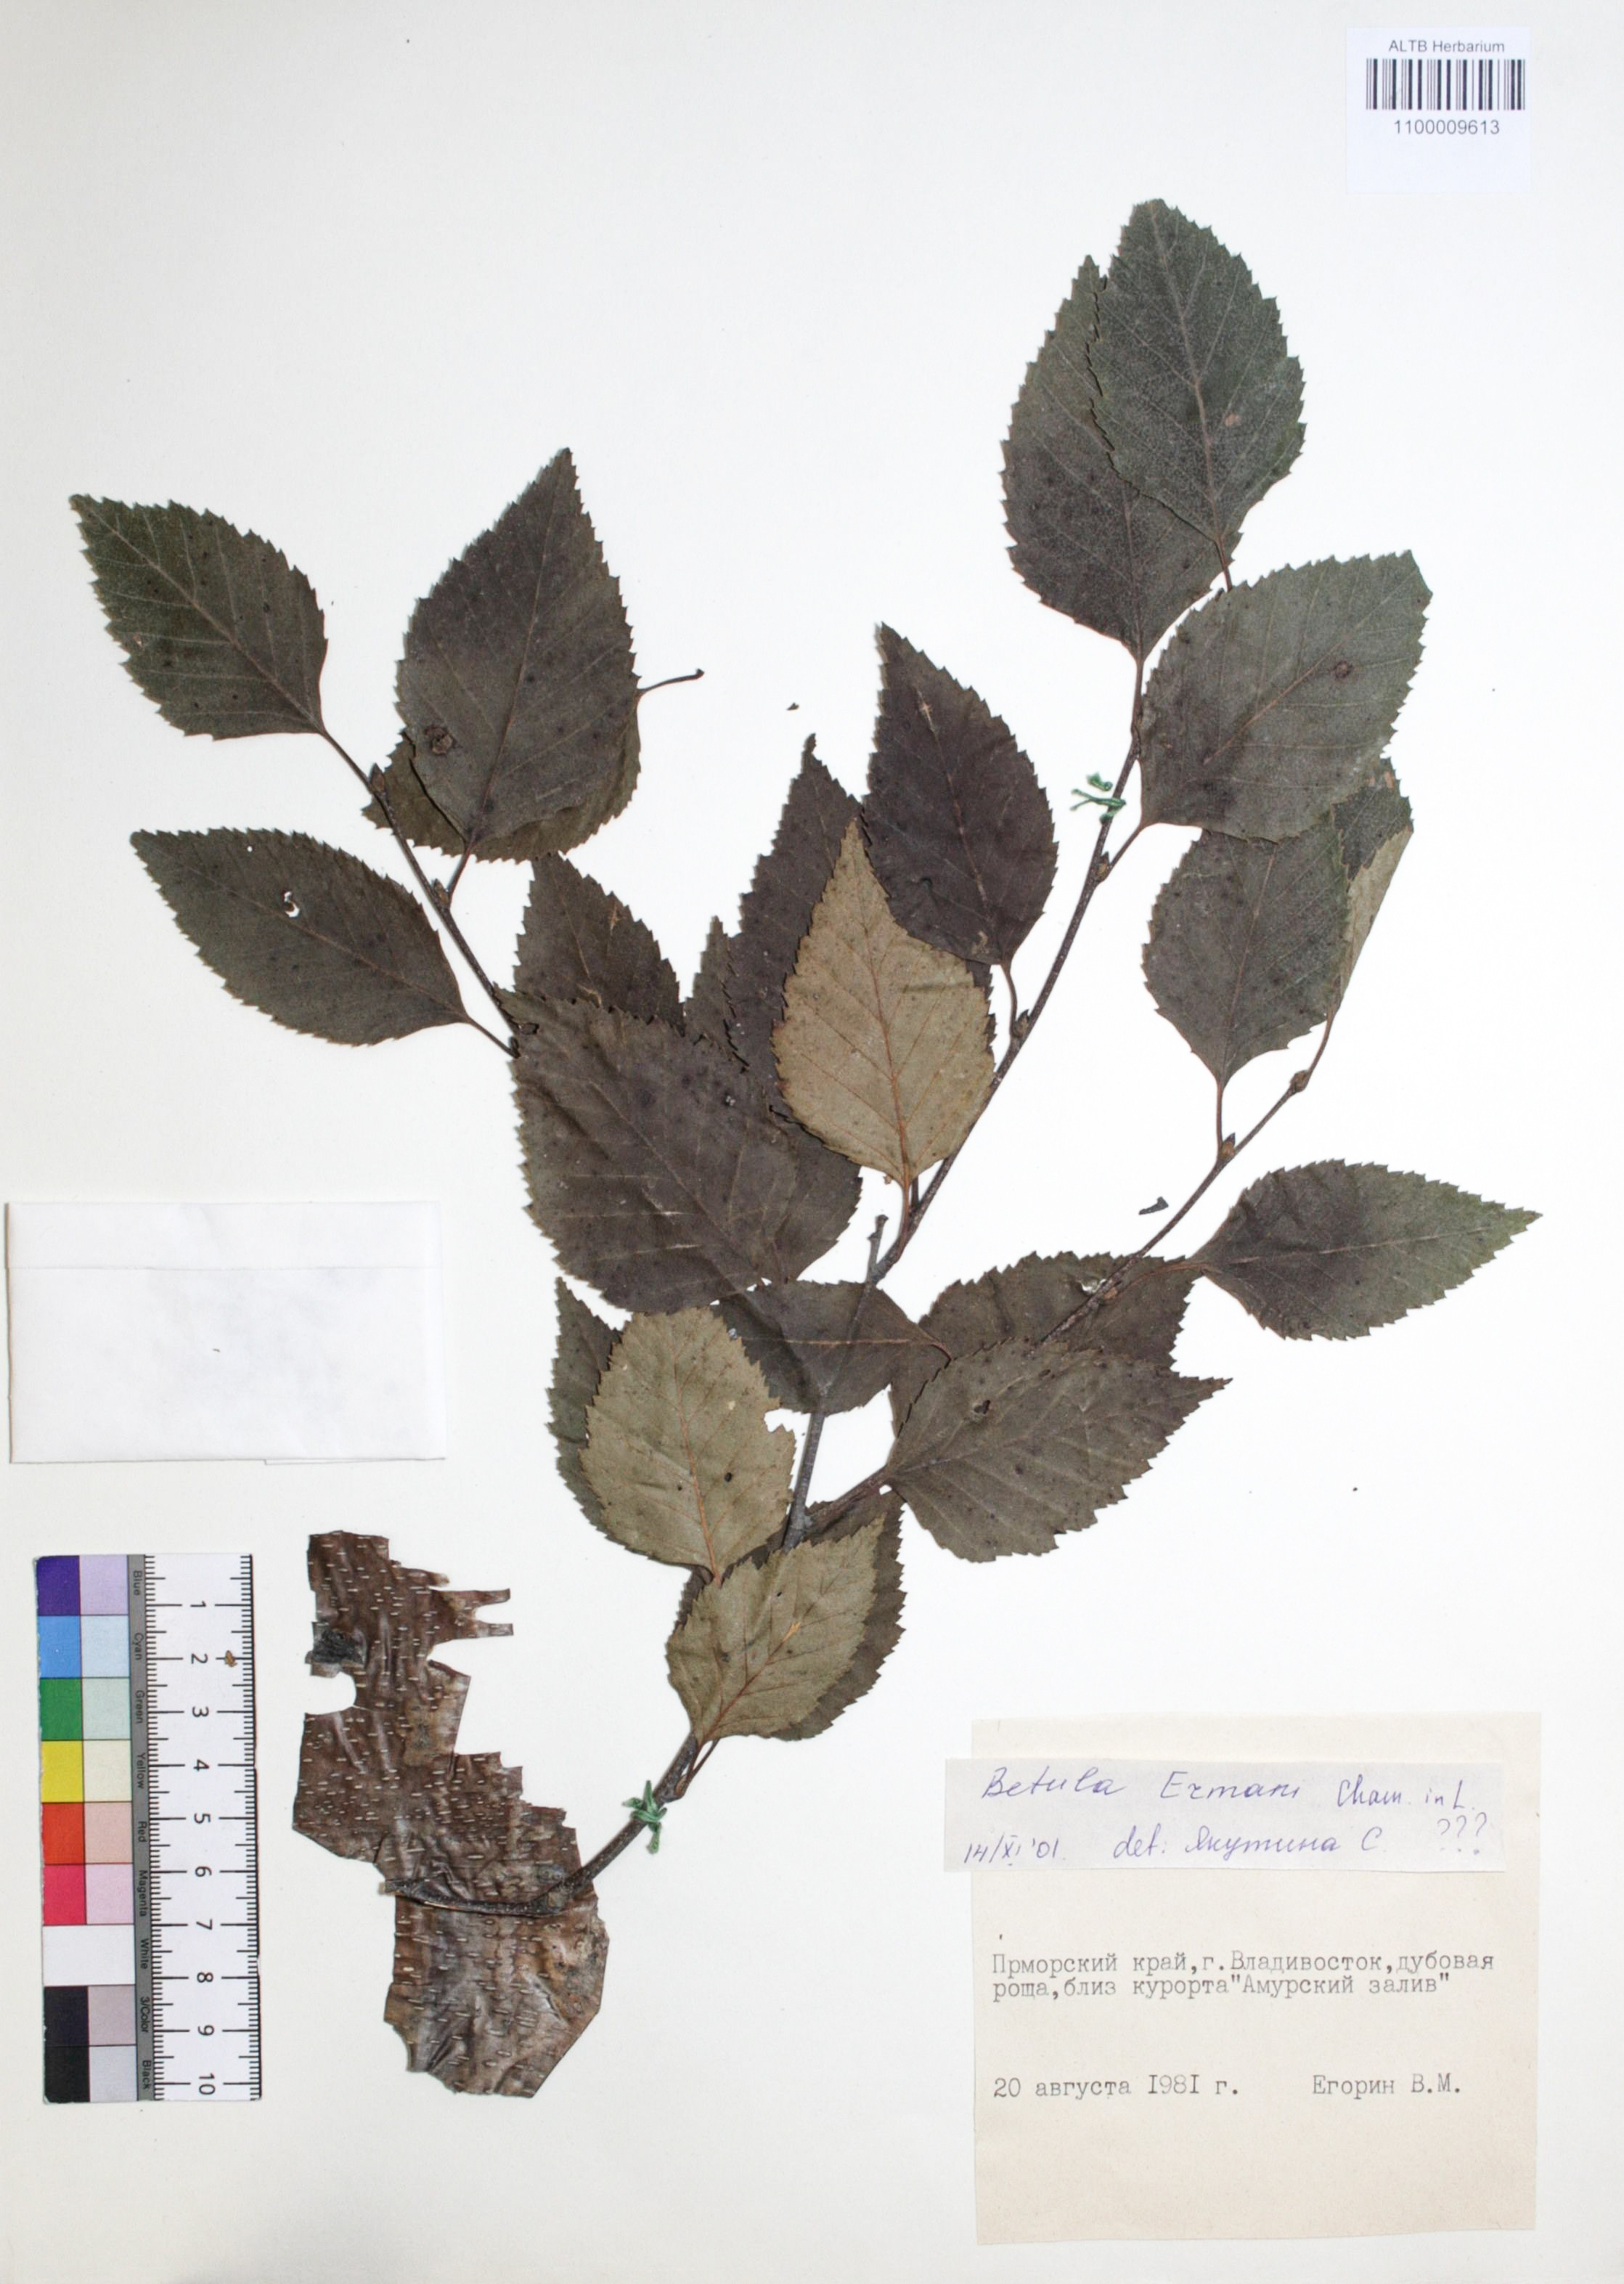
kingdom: Plantae
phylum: Tracheophyta
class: Magnoliopsida
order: Fagales
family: Betulaceae
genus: Betula
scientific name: Betula ermanii
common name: Erman's birch
